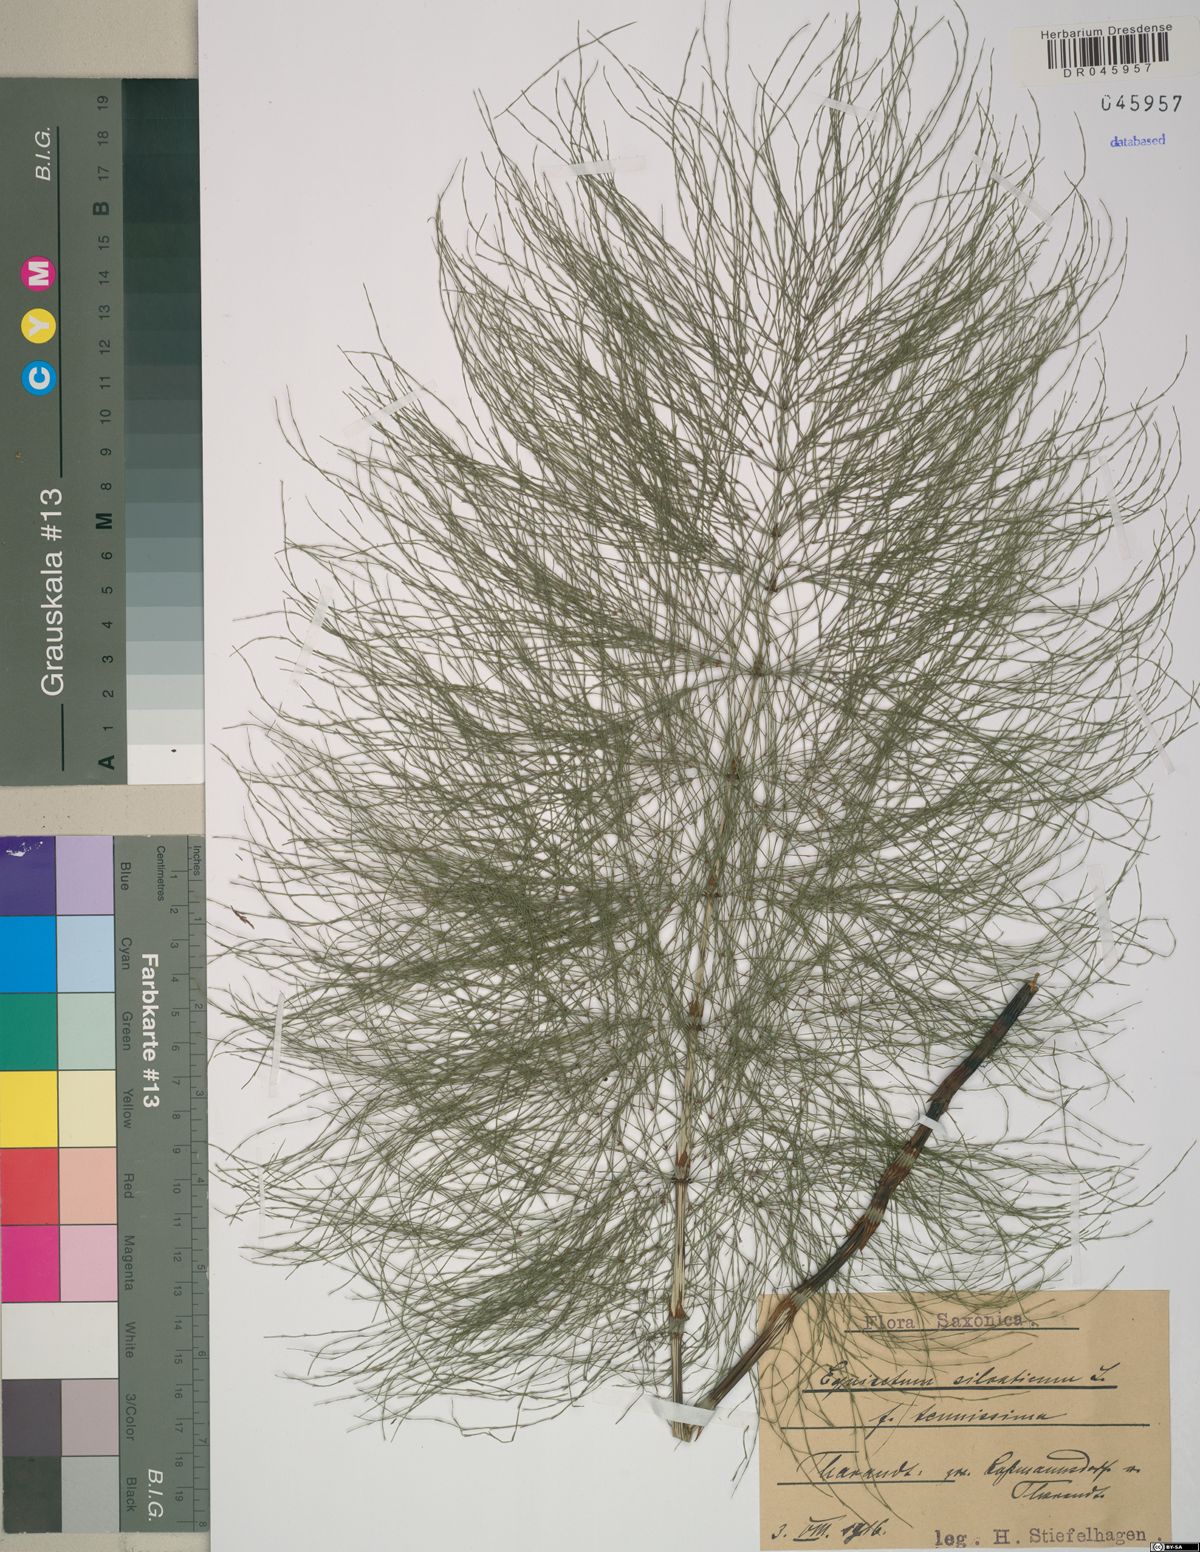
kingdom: Plantae
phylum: Tracheophyta
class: Polypodiopsida
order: Equisetales
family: Equisetaceae
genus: Equisetum
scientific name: Equisetum sylvaticum
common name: Wood horsetail
